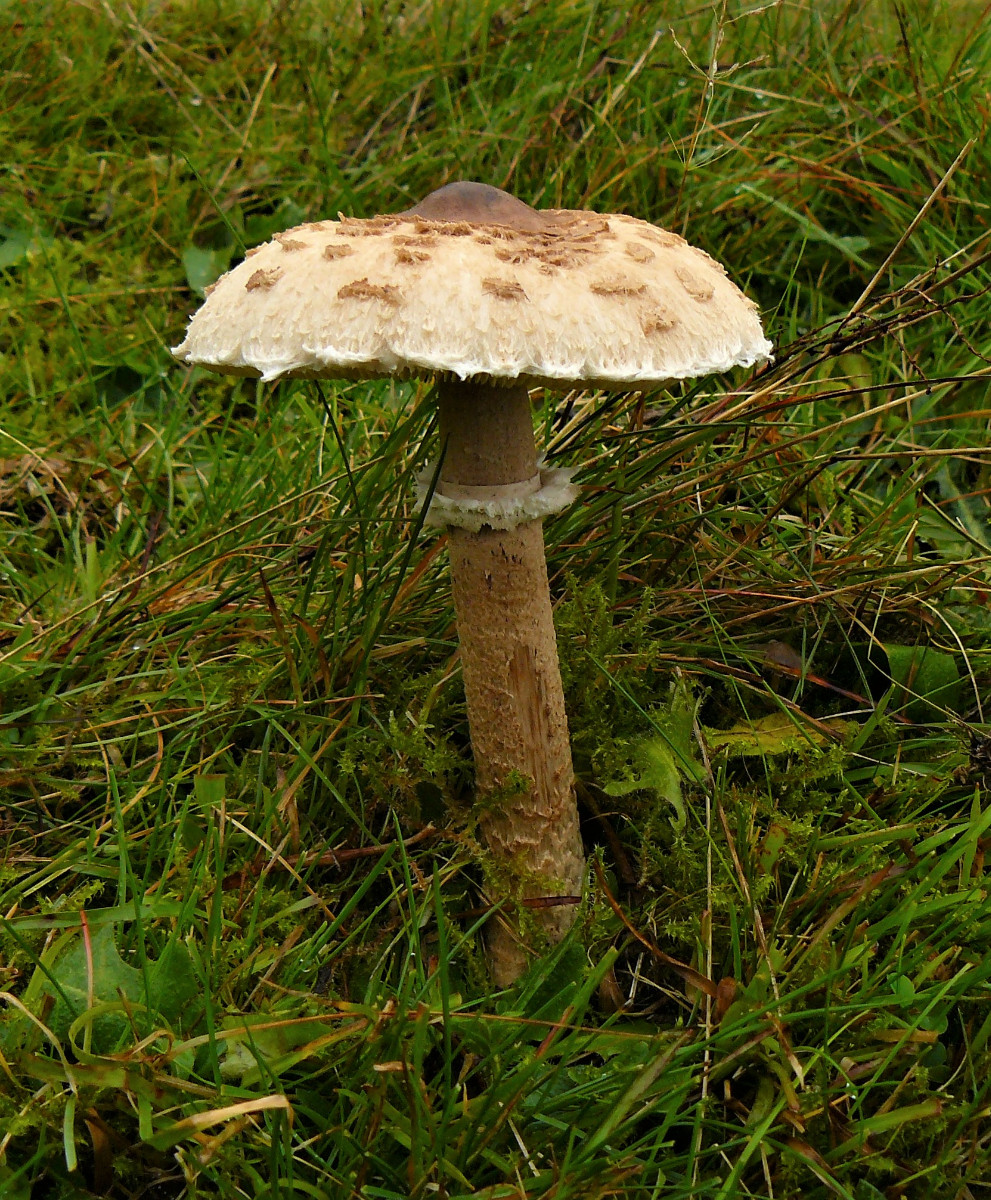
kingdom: Fungi
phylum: Basidiomycota
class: Agaricomycetes
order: Agaricales
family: Agaricaceae
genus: Macrolepiota
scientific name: Macrolepiota mastoidea
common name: puklet kæmpeparasolhat
